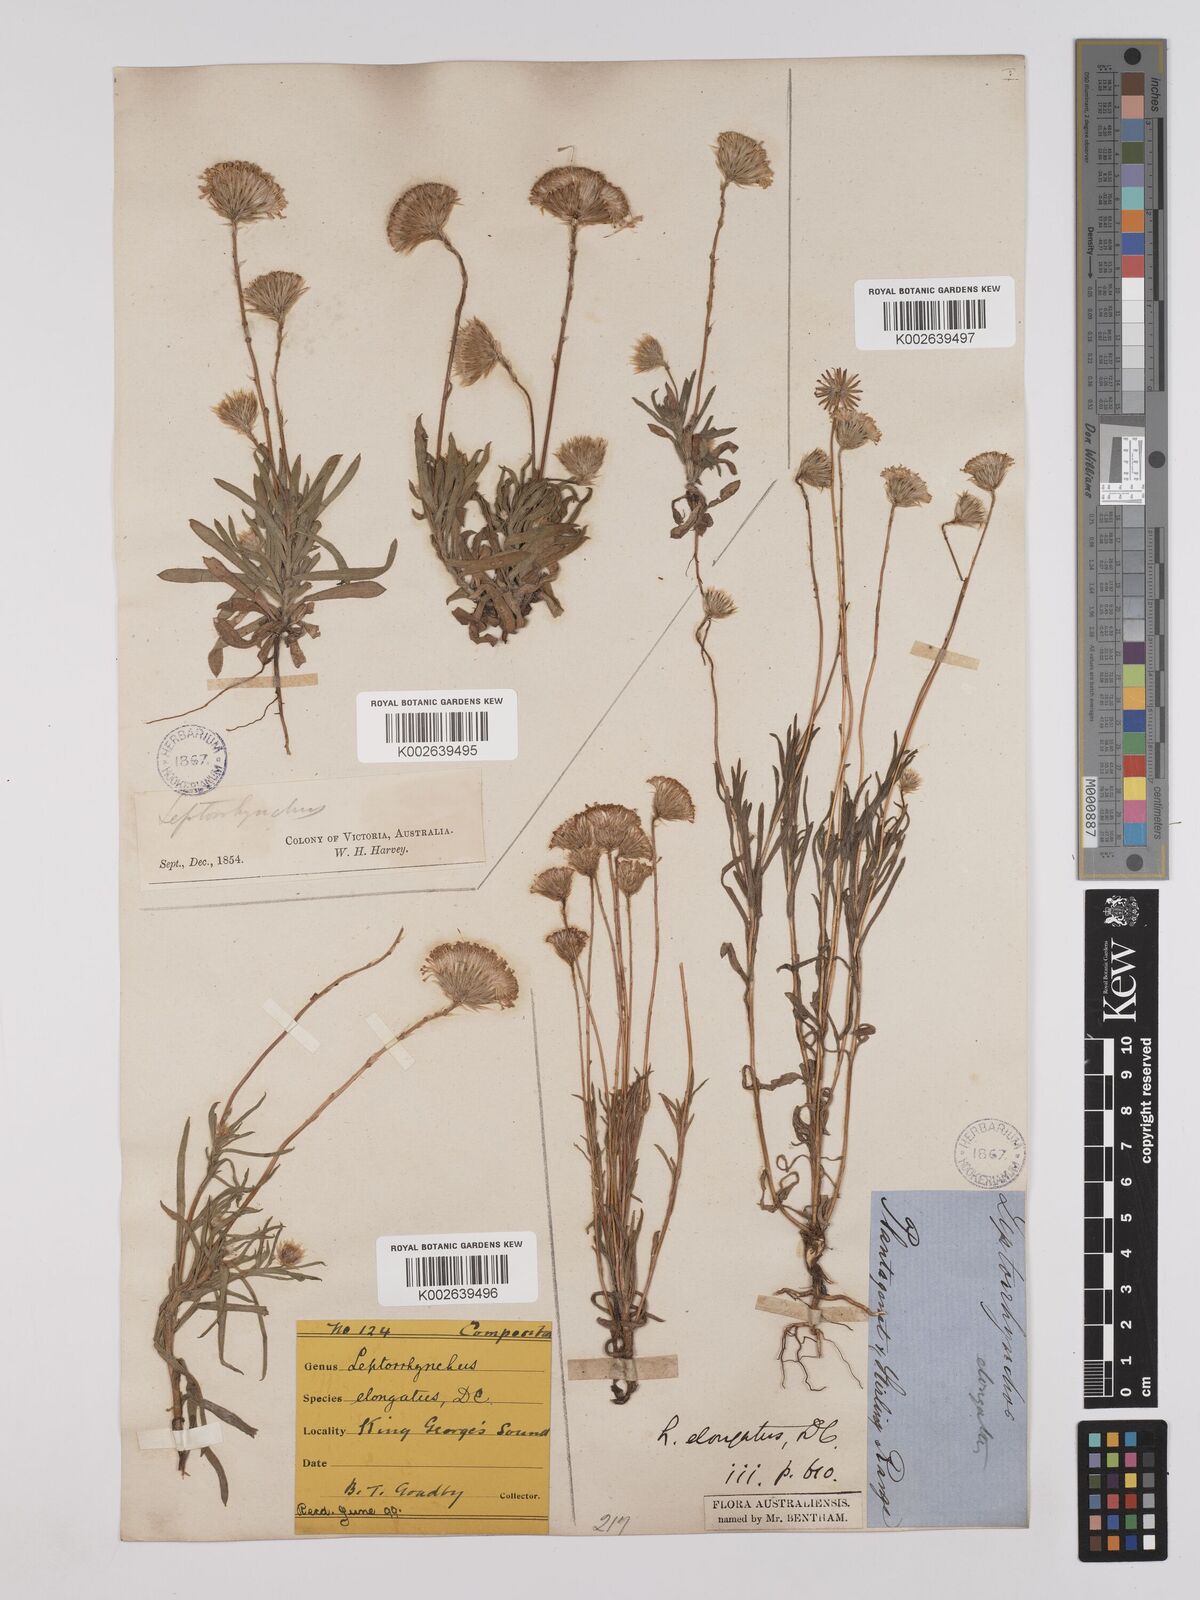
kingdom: Plantae
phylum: Tracheophyta
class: Magnoliopsida
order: Asterales
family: Asteraceae
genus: Leptorhynchos
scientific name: Leptorhynchos elongatus
